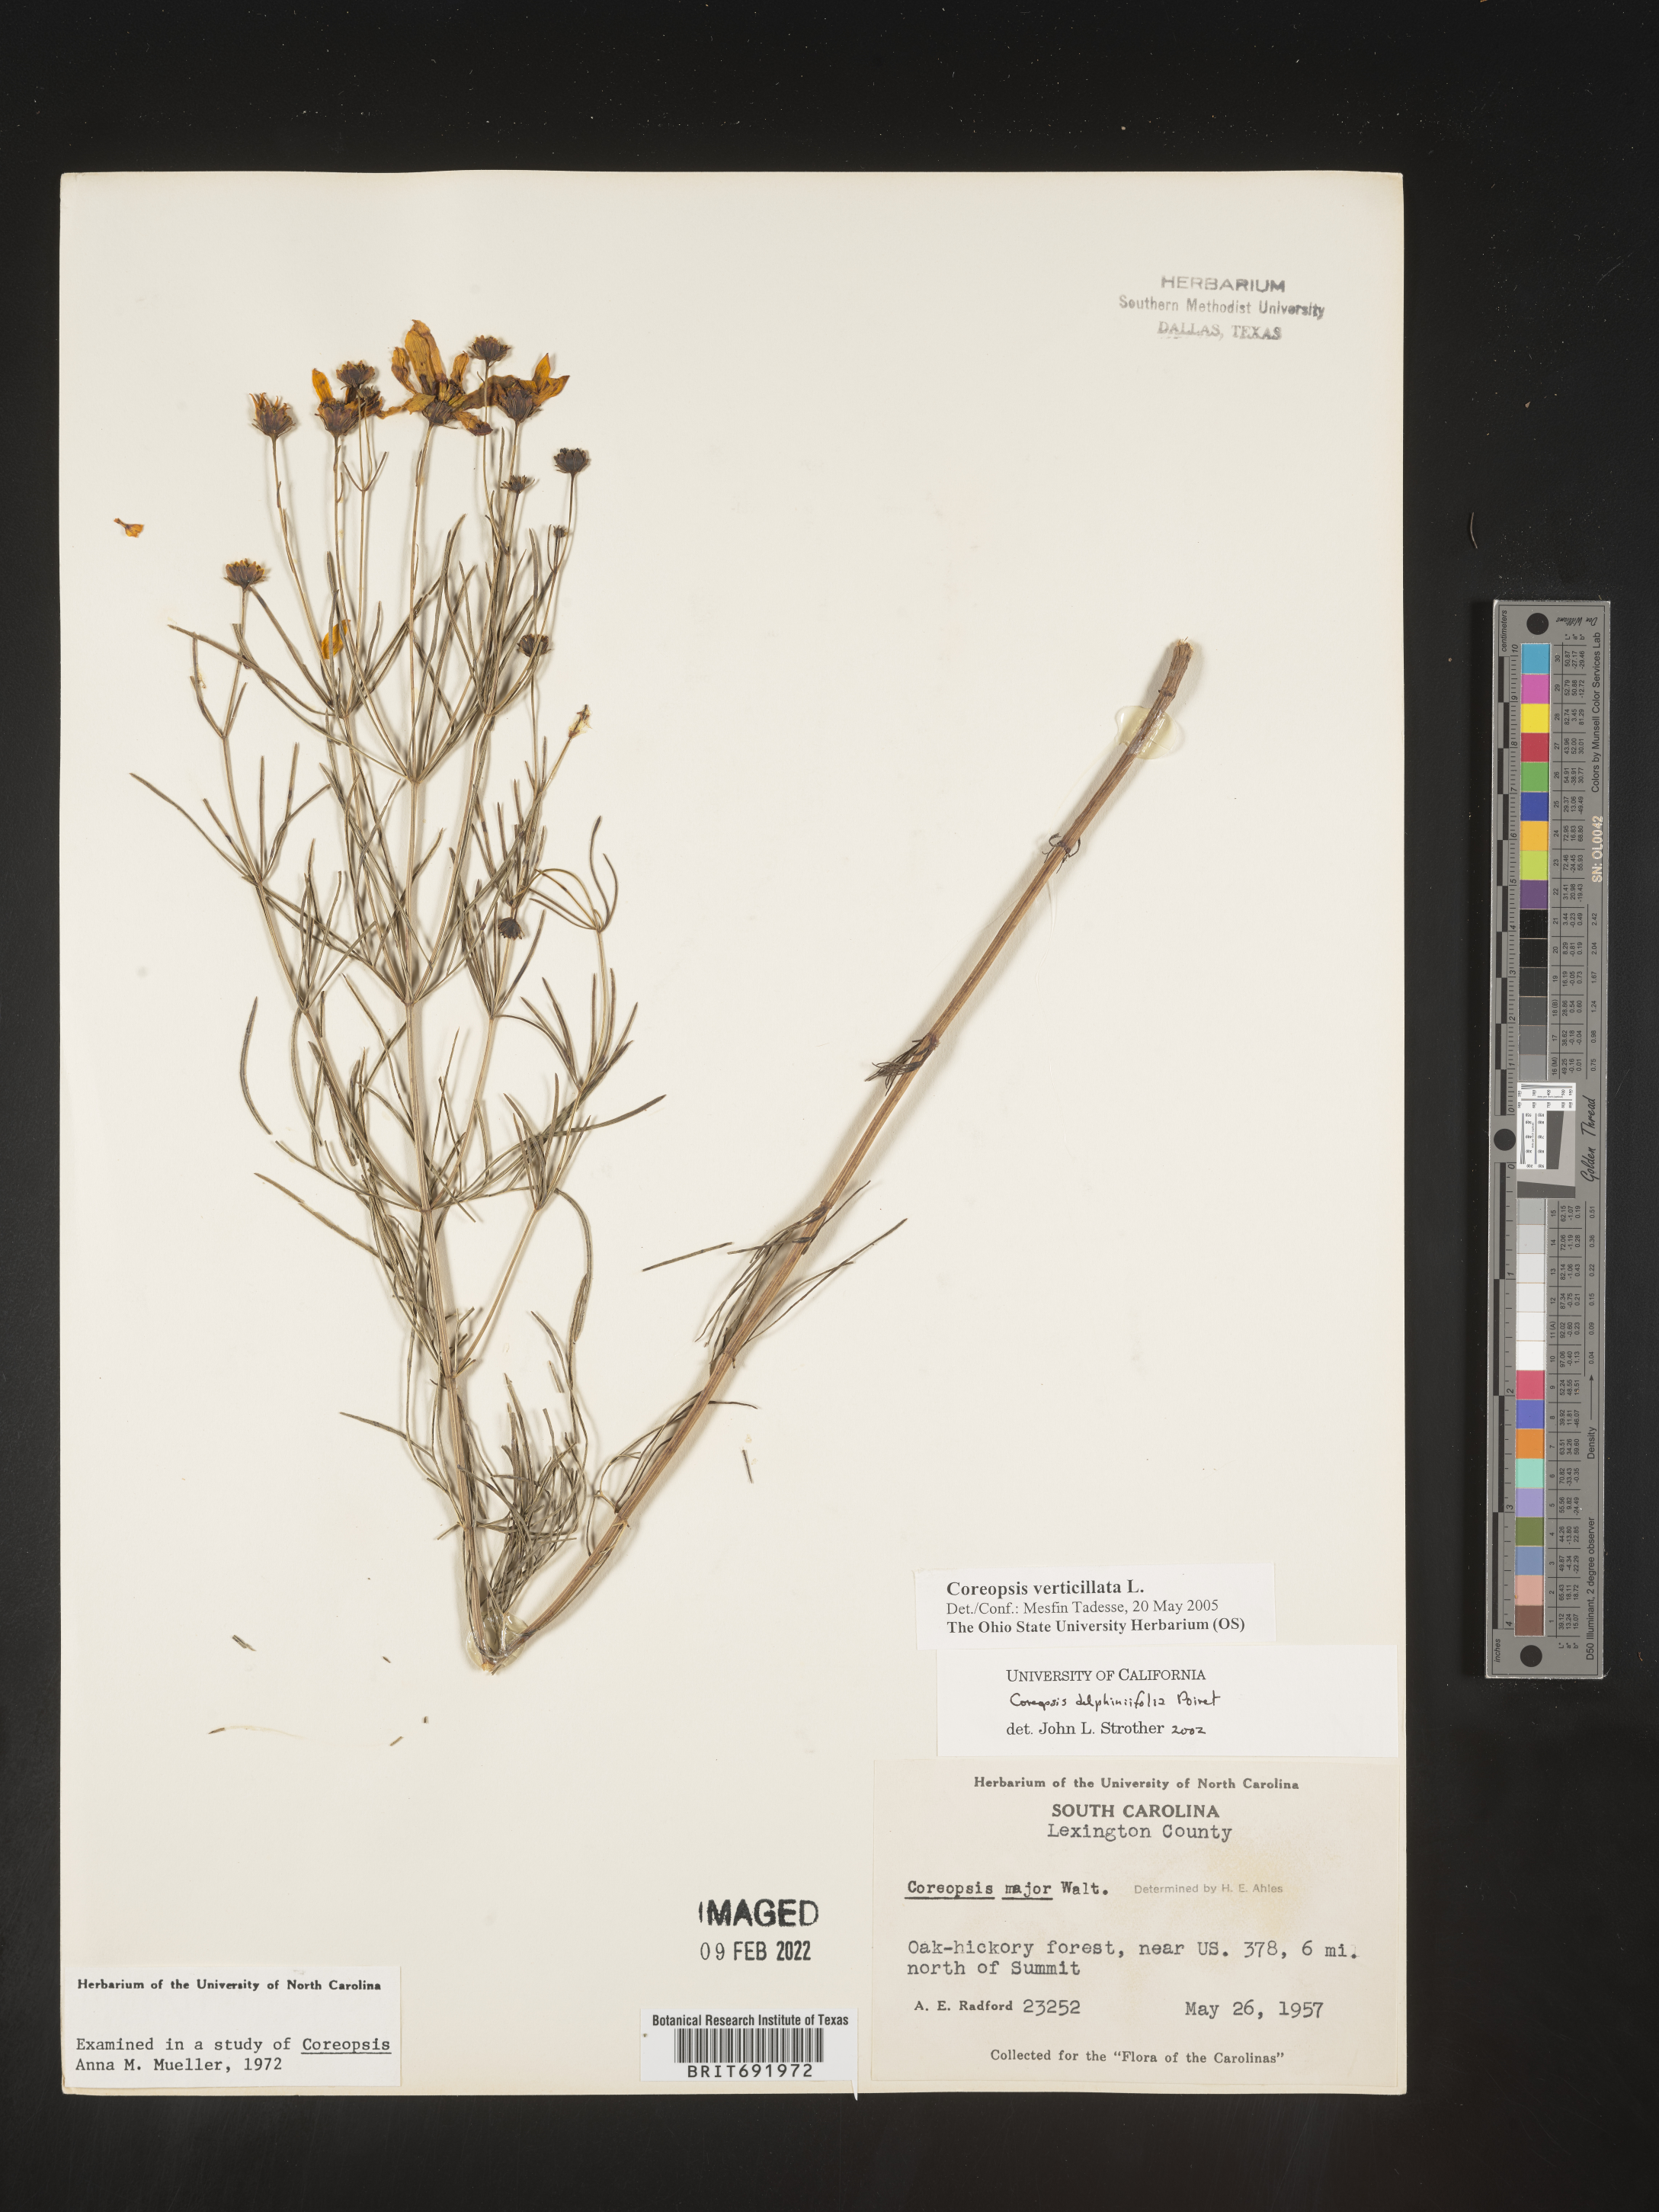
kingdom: Plantae
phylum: Tracheophyta
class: Magnoliopsida
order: Asterales
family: Asteraceae
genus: Coreopsis
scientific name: Coreopsis verticillata
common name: Whorled tickseed
